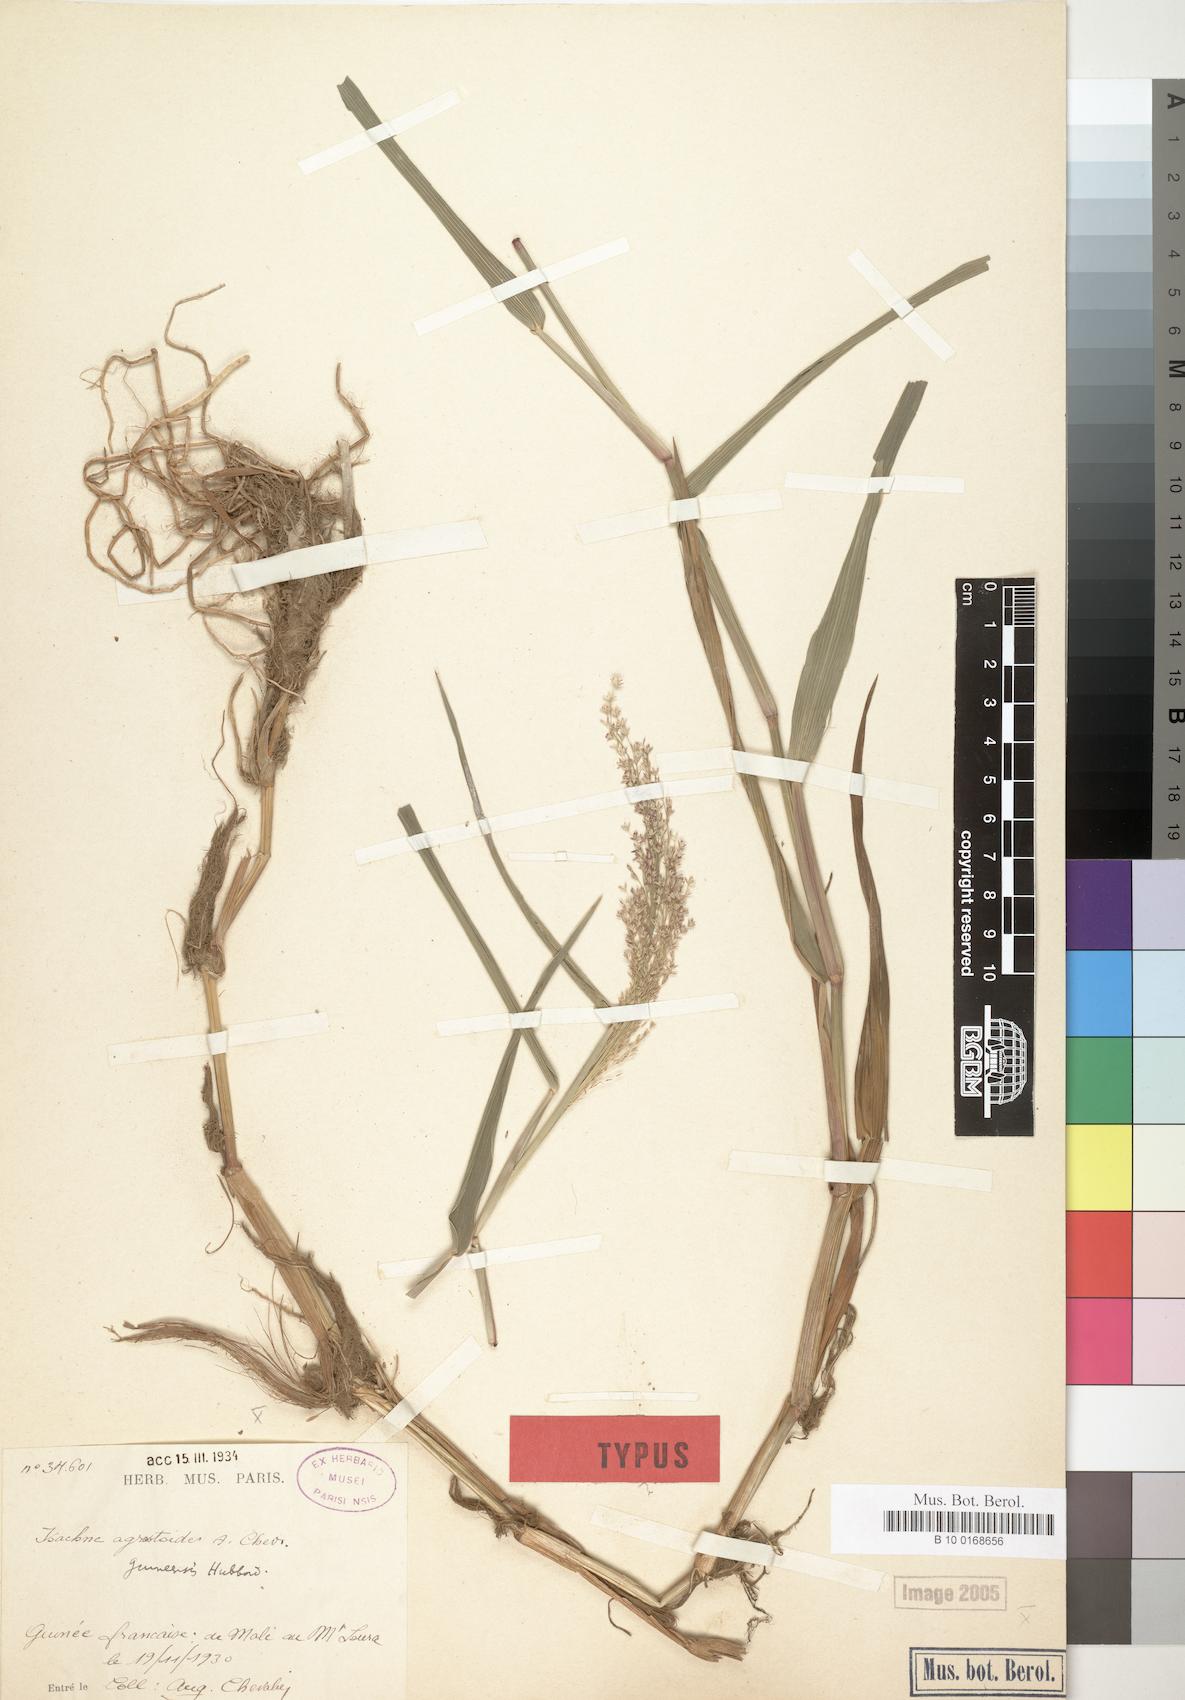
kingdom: Plantae
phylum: Tracheophyta
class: Liliopsida
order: Poales
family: Poaceae
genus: Isachne
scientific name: Isachne guineensis
